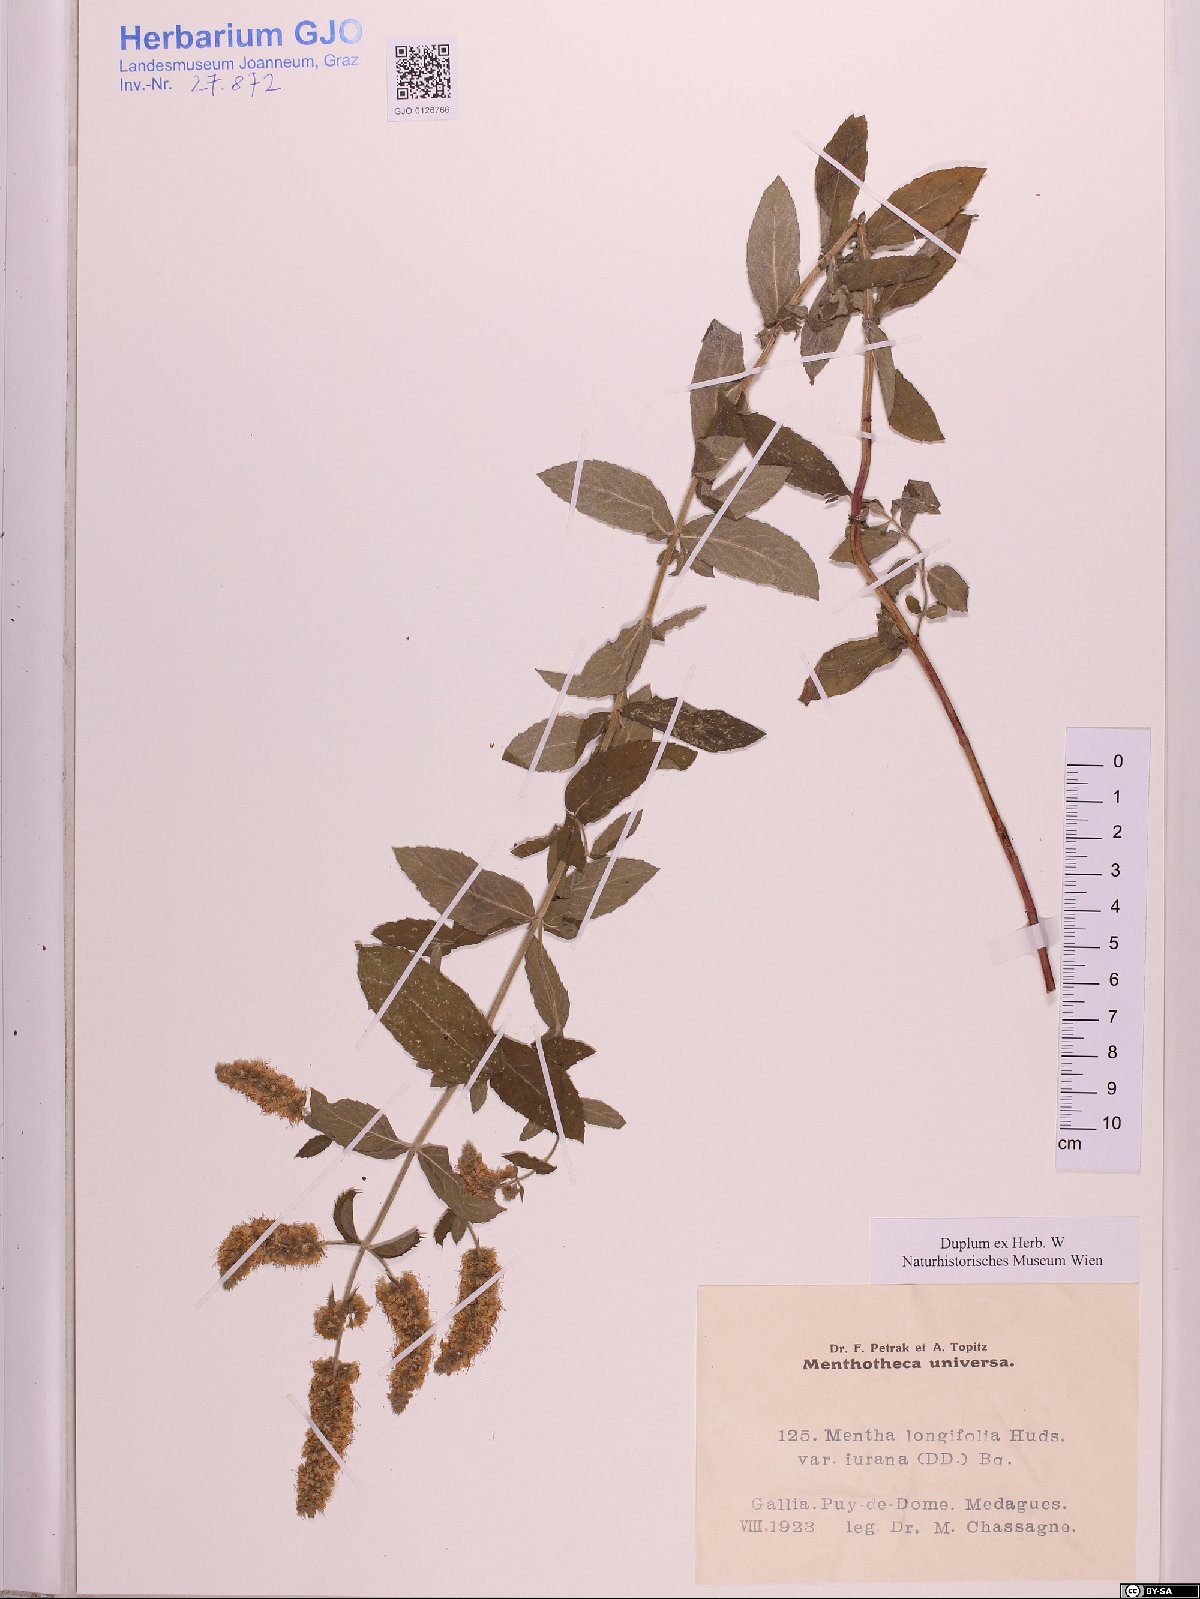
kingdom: Plantae
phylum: Tracheophyta
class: Magnoliopsida
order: Lamiales
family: Lamiaceae
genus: Mentha
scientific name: Mentha longifolia
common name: Horse mint
